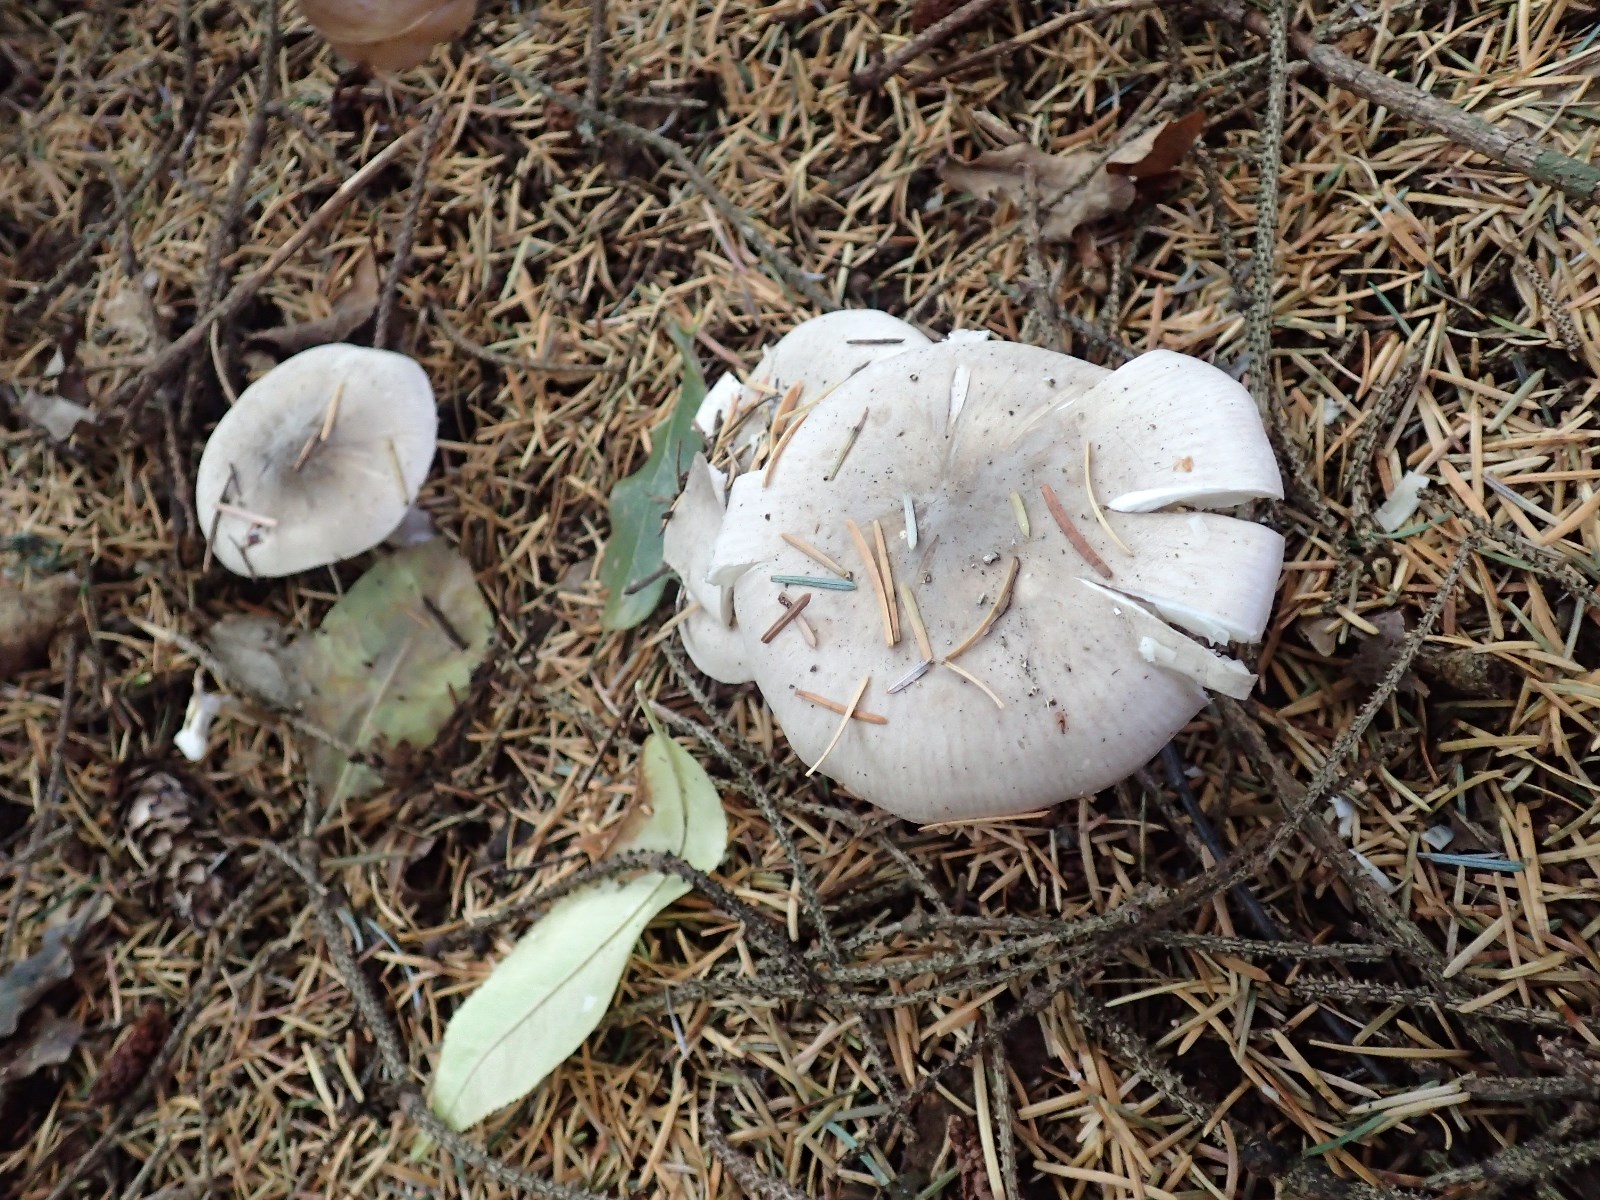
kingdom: Fungi
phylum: Basidiomycota
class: Agaricomycetes
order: Agaricales
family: Tricholomataceae
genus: Clitocybe
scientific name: Clitocybe nebularis
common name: tåge-tragthat
